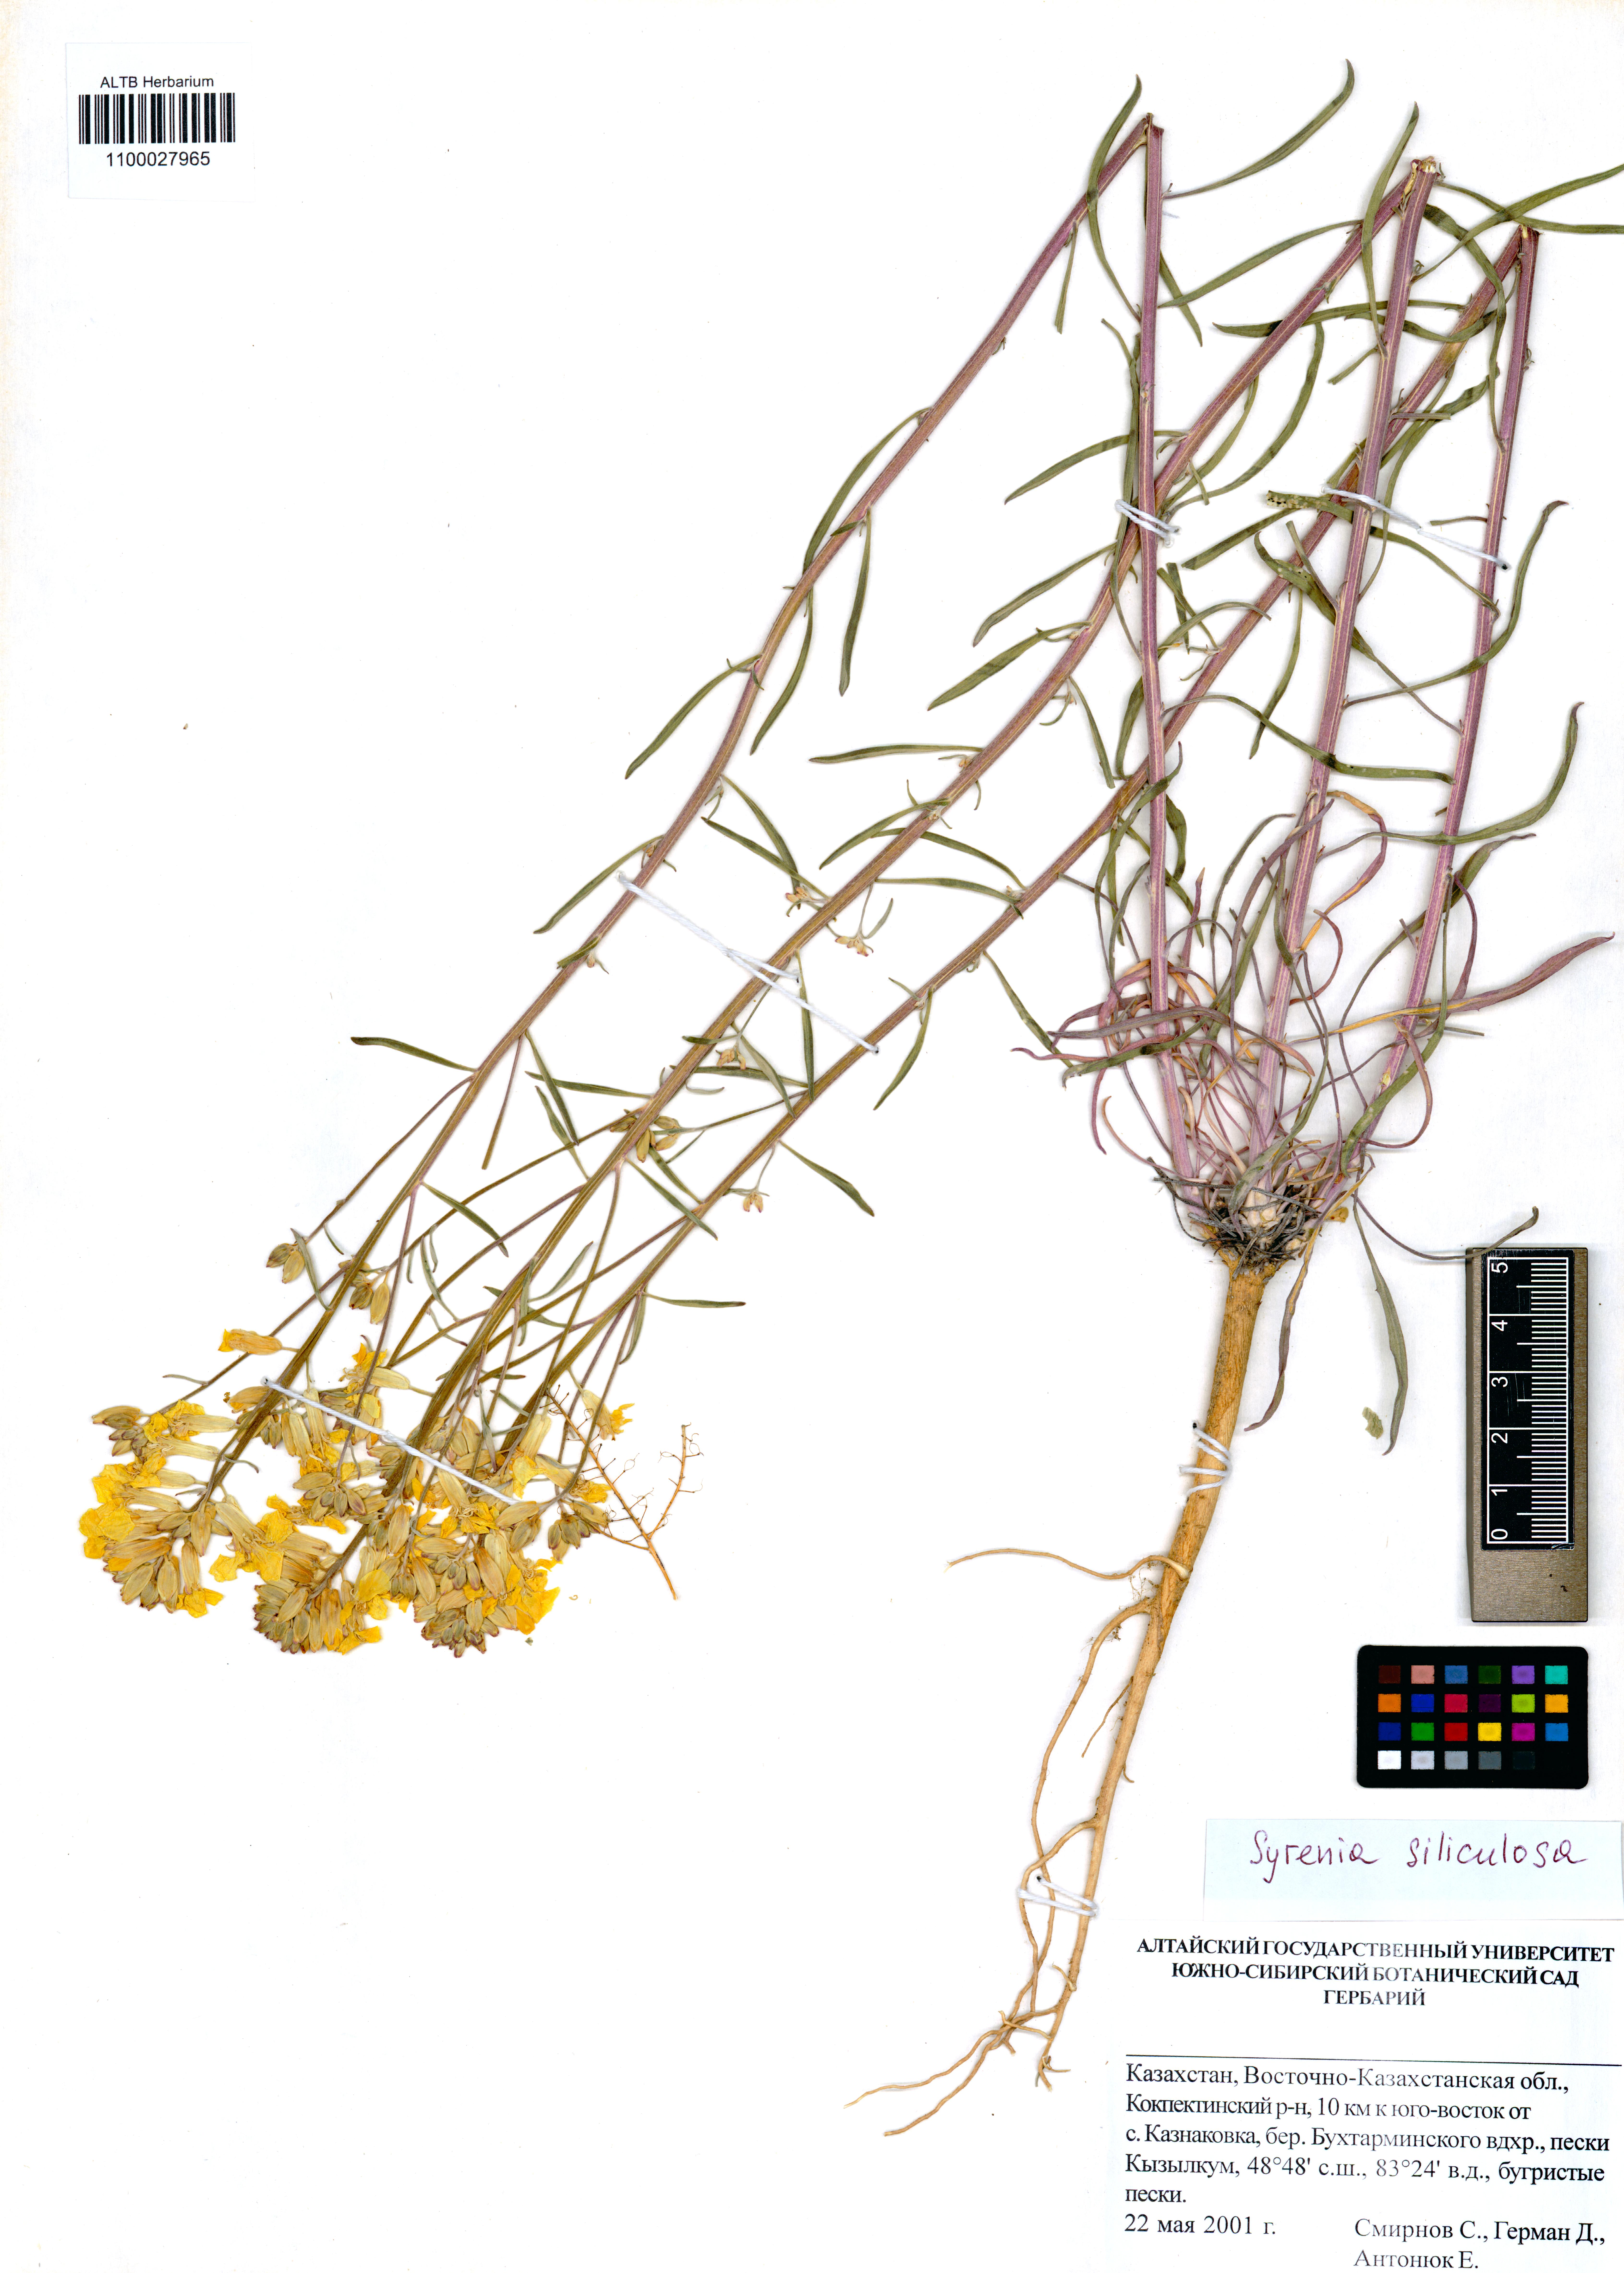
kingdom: Plantae
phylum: Tracheophyta
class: Magnoliopsida
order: Brassicales
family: Brassicaceae
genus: Syrenia
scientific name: Syrenia siliculosa
